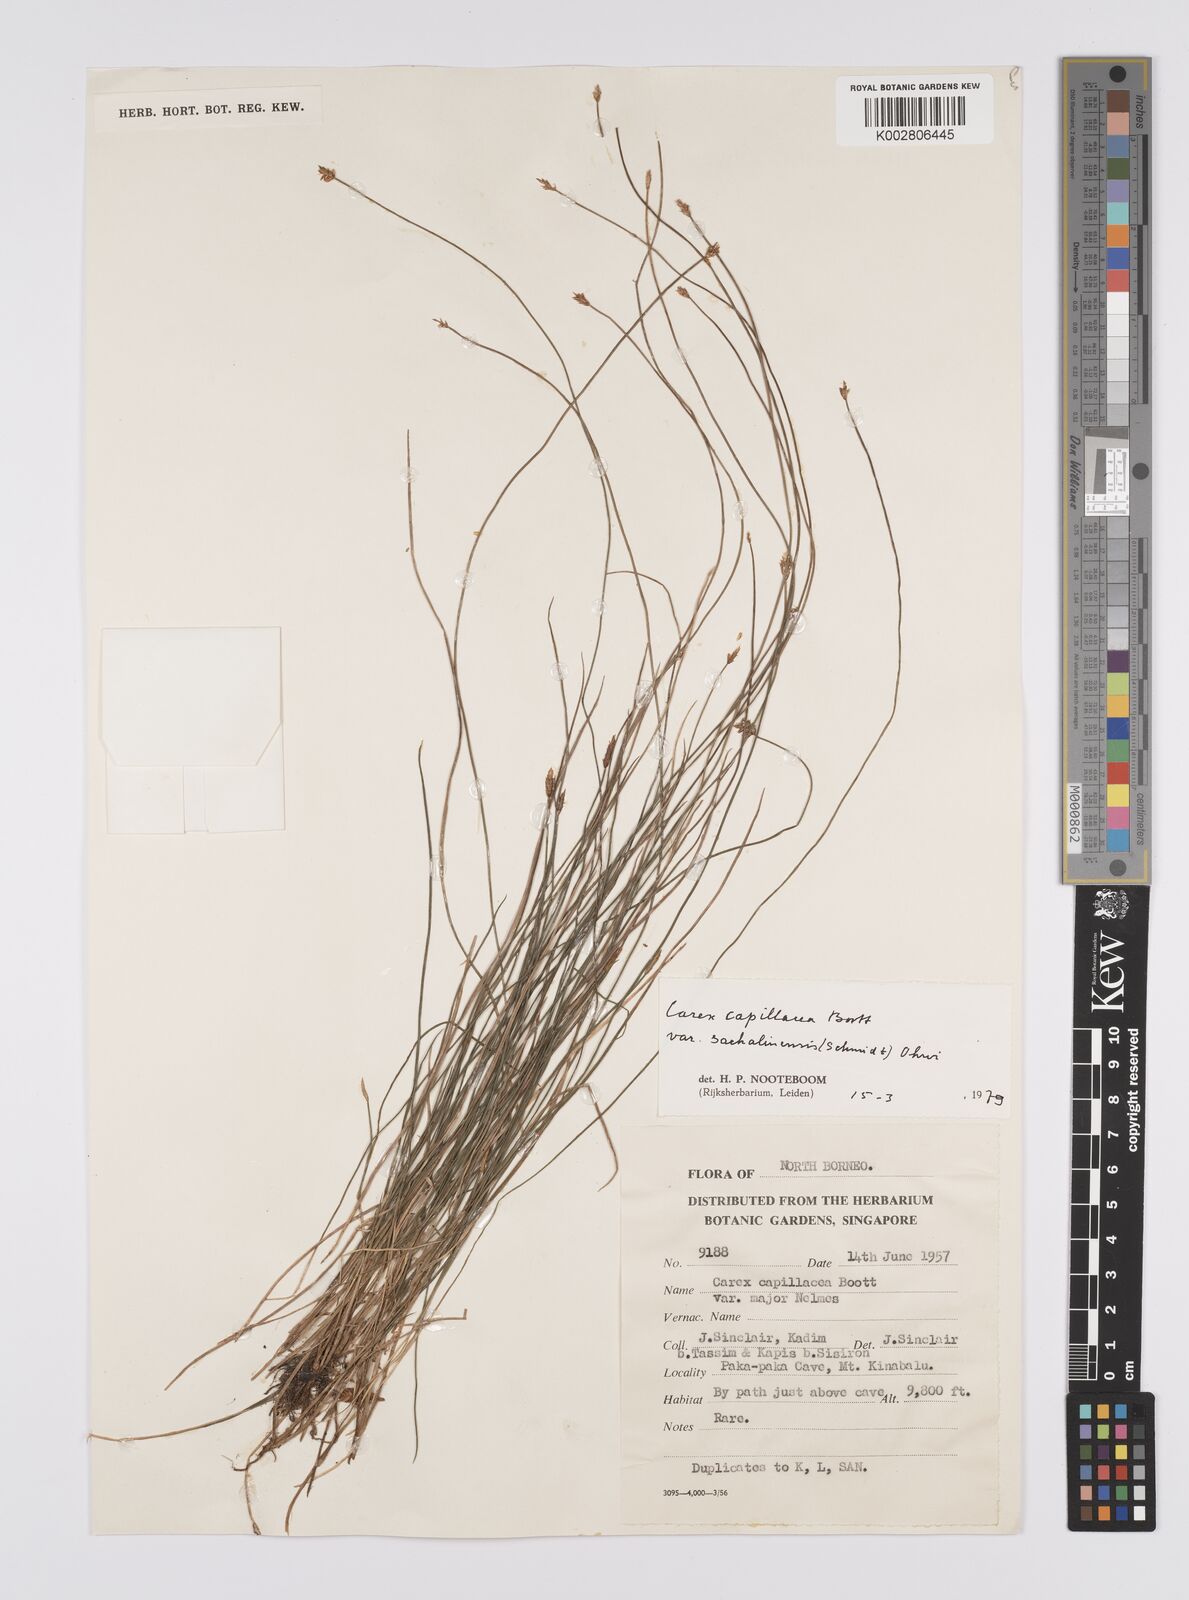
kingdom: Plantae
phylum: Tracheophyta
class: Liliopsida
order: Poales
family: Cyperaceae
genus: Carex
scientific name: Carex capillacea
